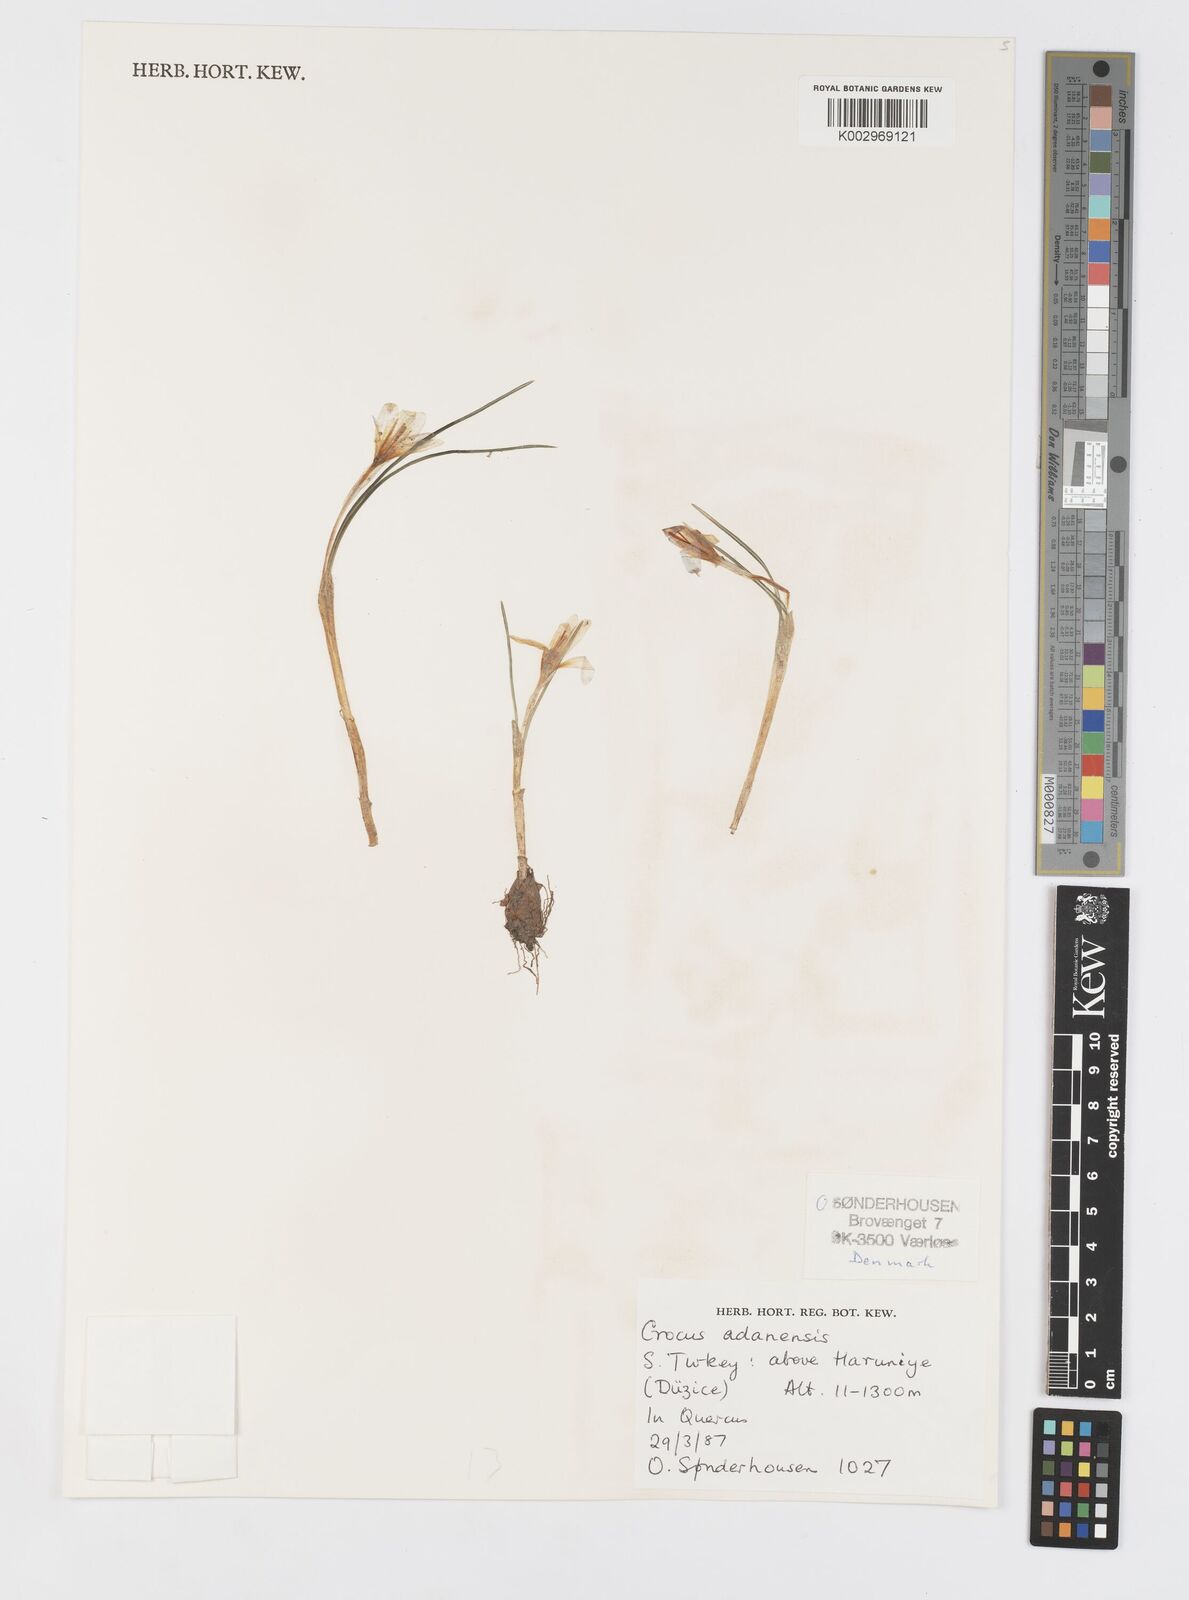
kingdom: Plantae
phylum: Tracheophyta
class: Liliopsida
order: Asparagales
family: Iridaceae
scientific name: Iridaceae
